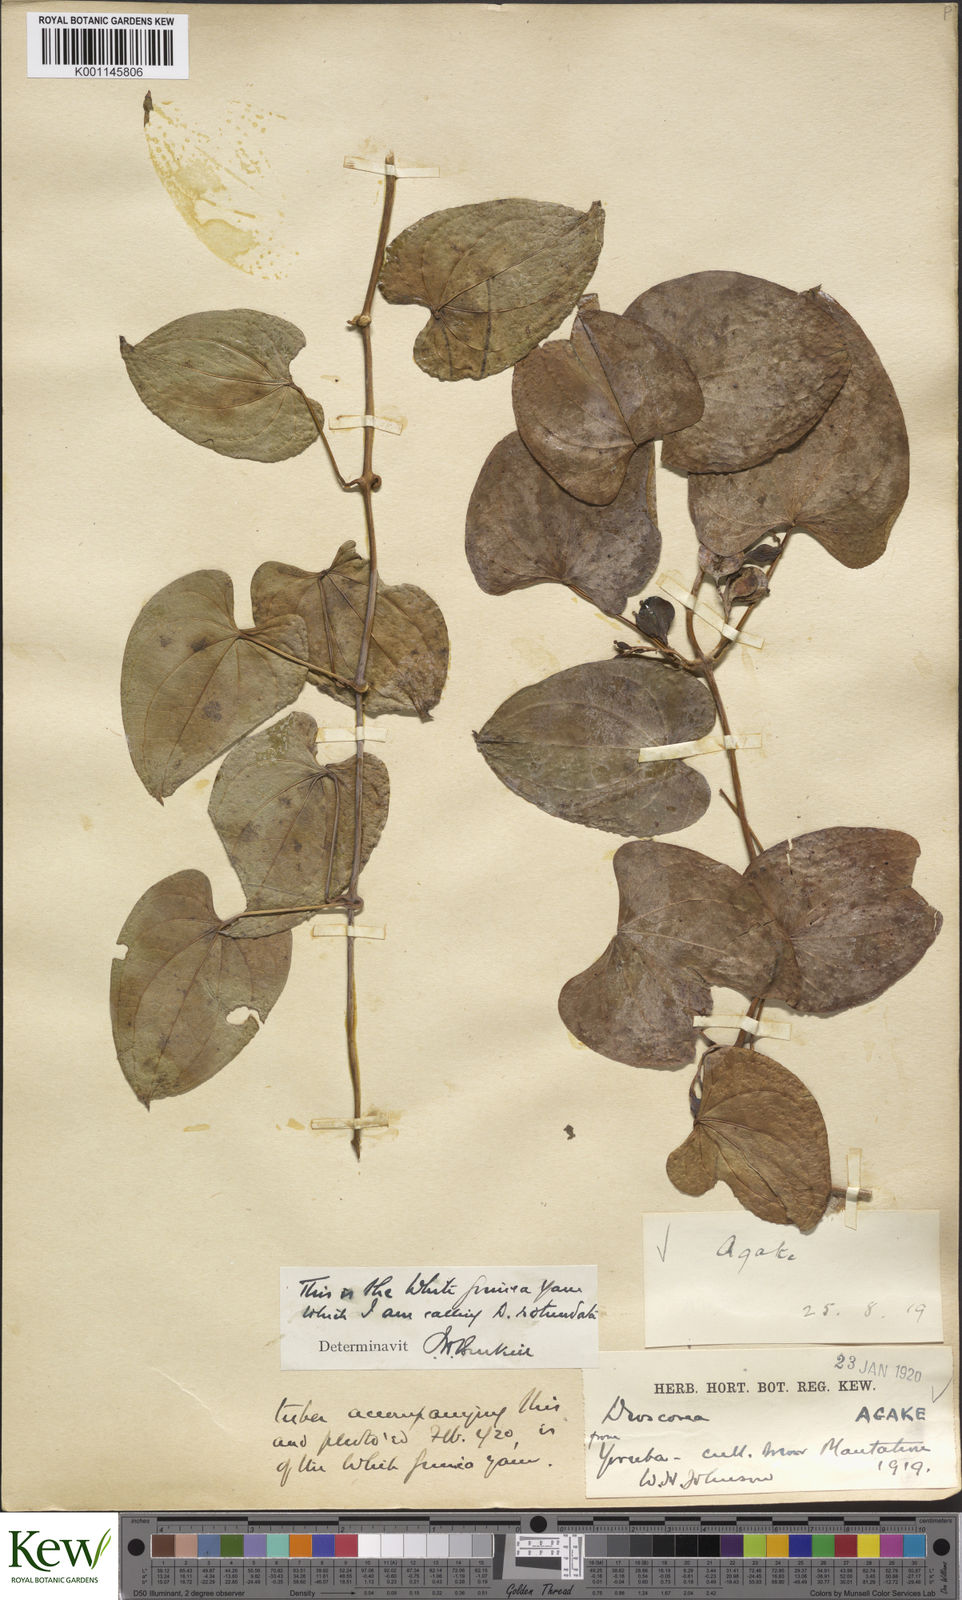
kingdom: Plantae
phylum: Tracheophyta
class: Liliopsida
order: Dioscoreales
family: Dioscoreaceae
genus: Dioscorea
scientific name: Dioscorea cayenensis
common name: Attoto yam
